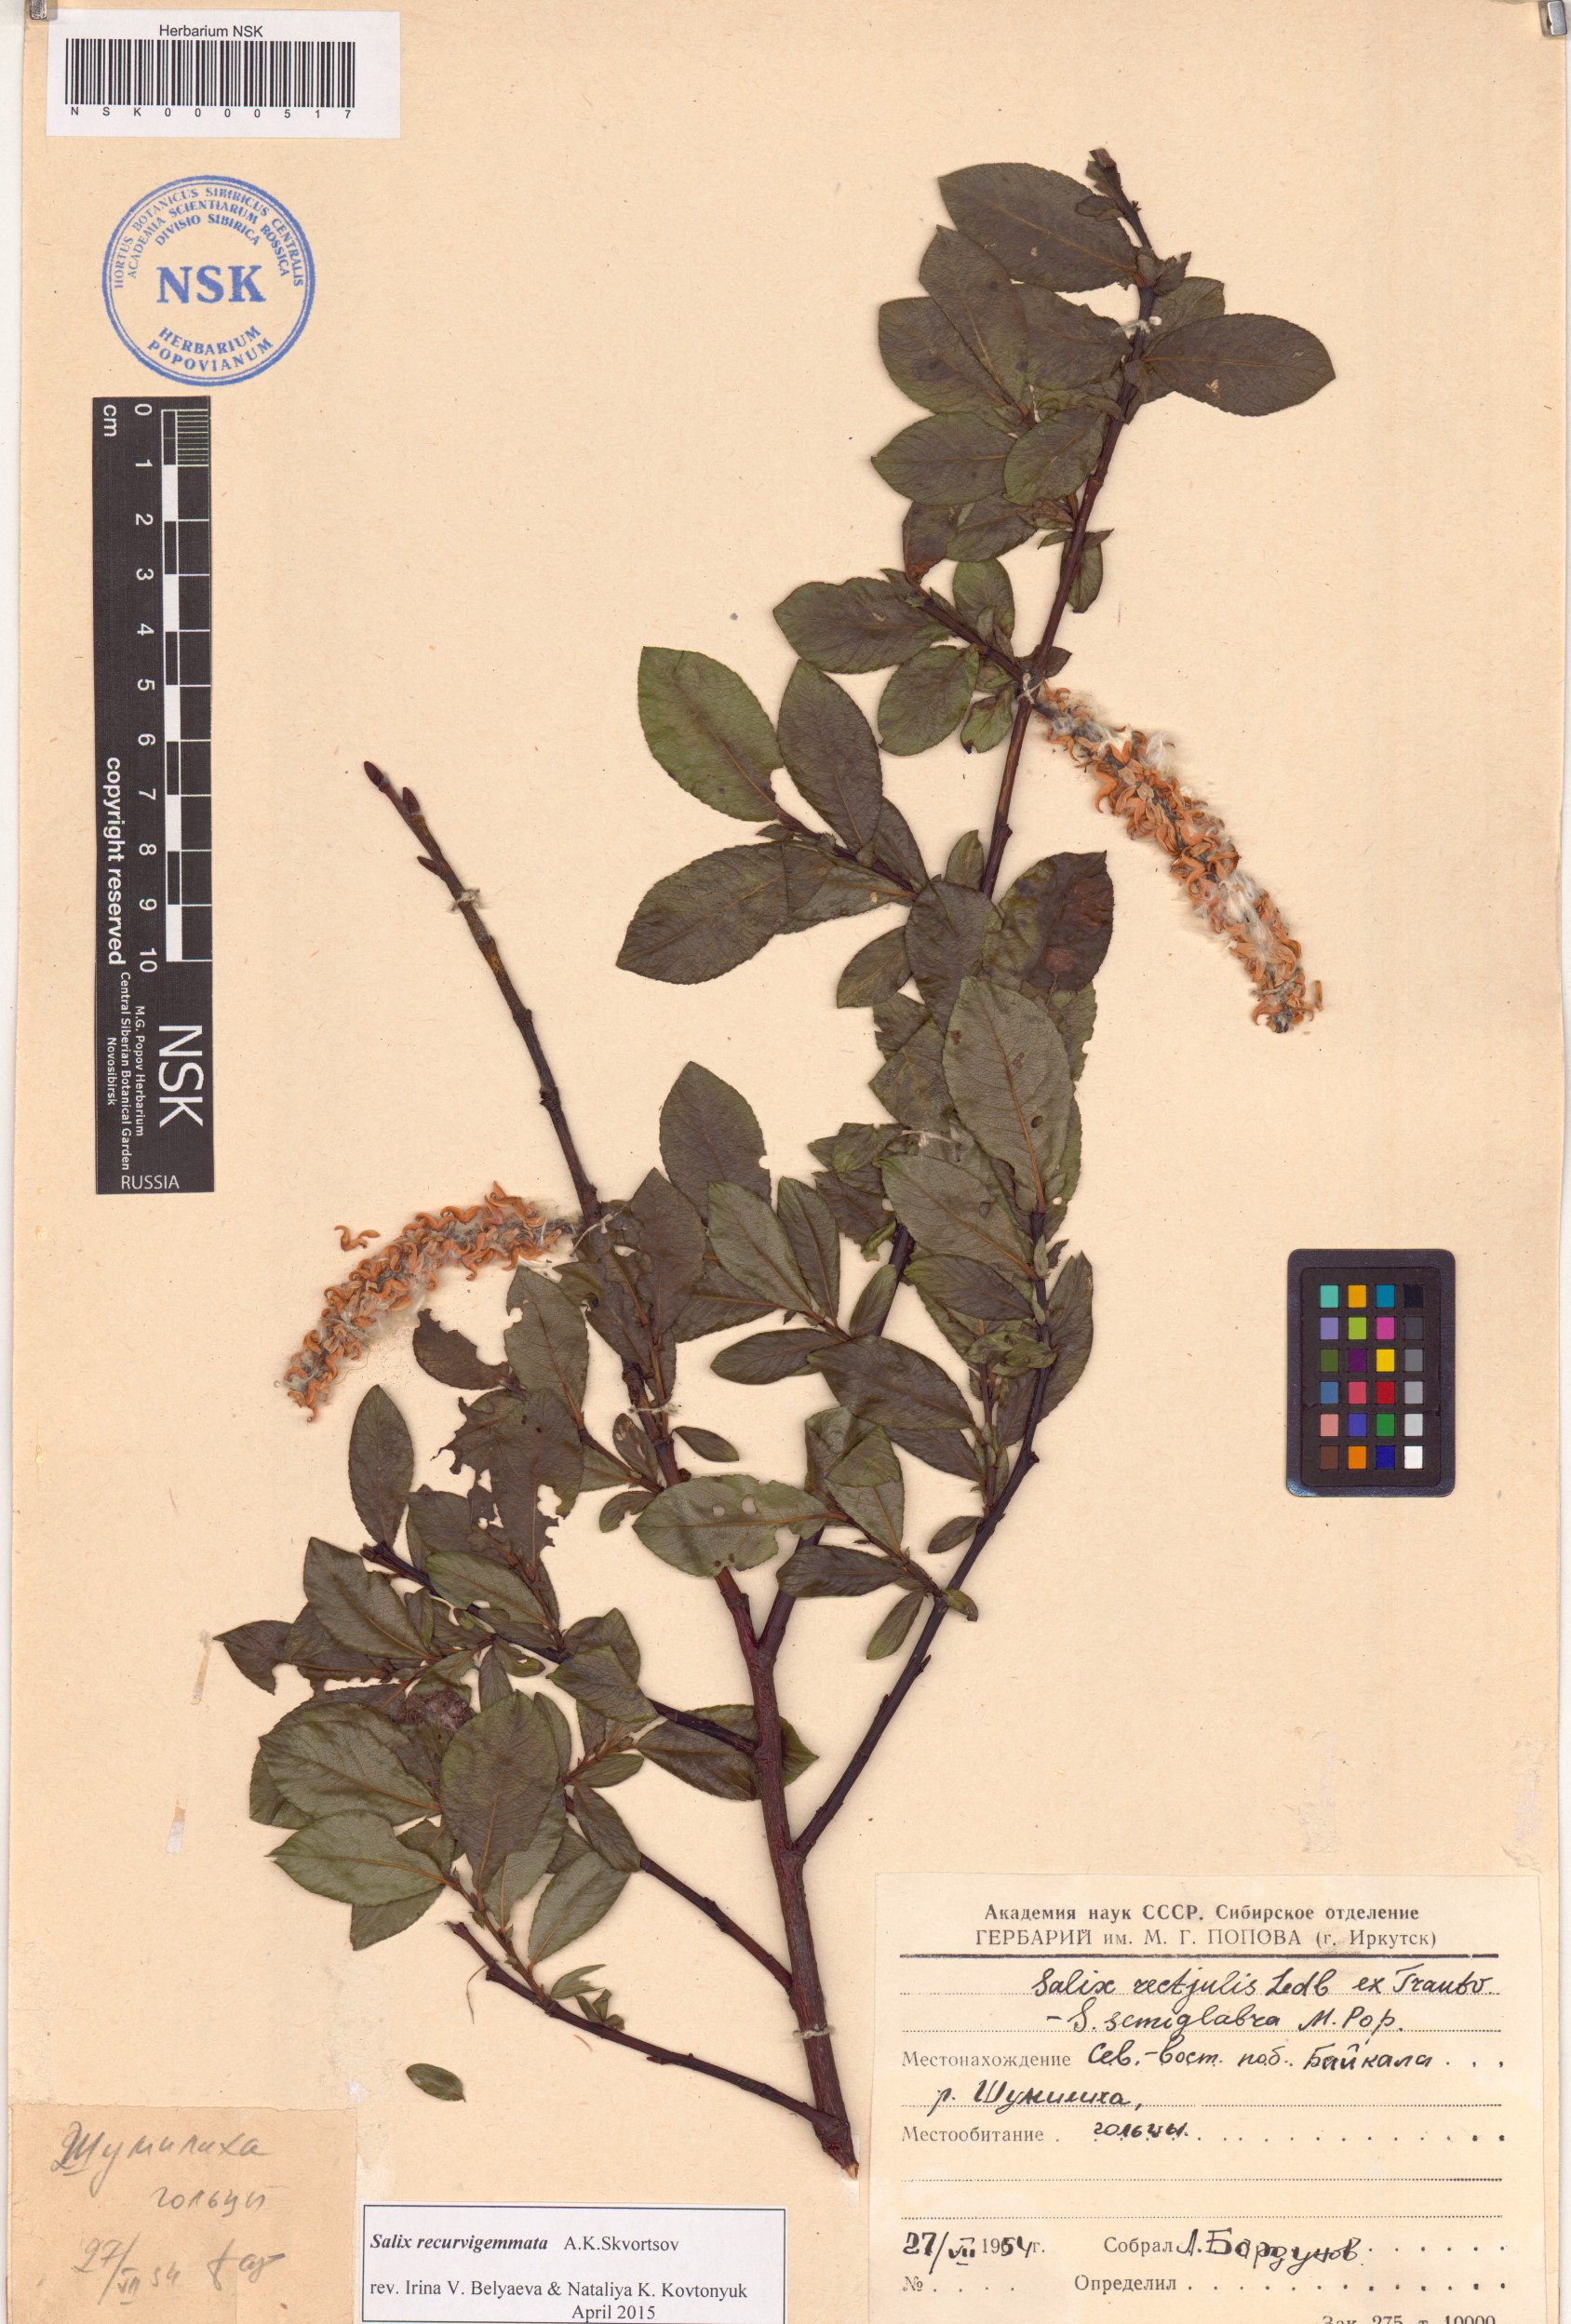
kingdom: Plantae
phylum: Tracheophyta
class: Magnoliopsida
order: Malpighiales
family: Salicaceae
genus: Salix
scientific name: Salix recurvigemmata
